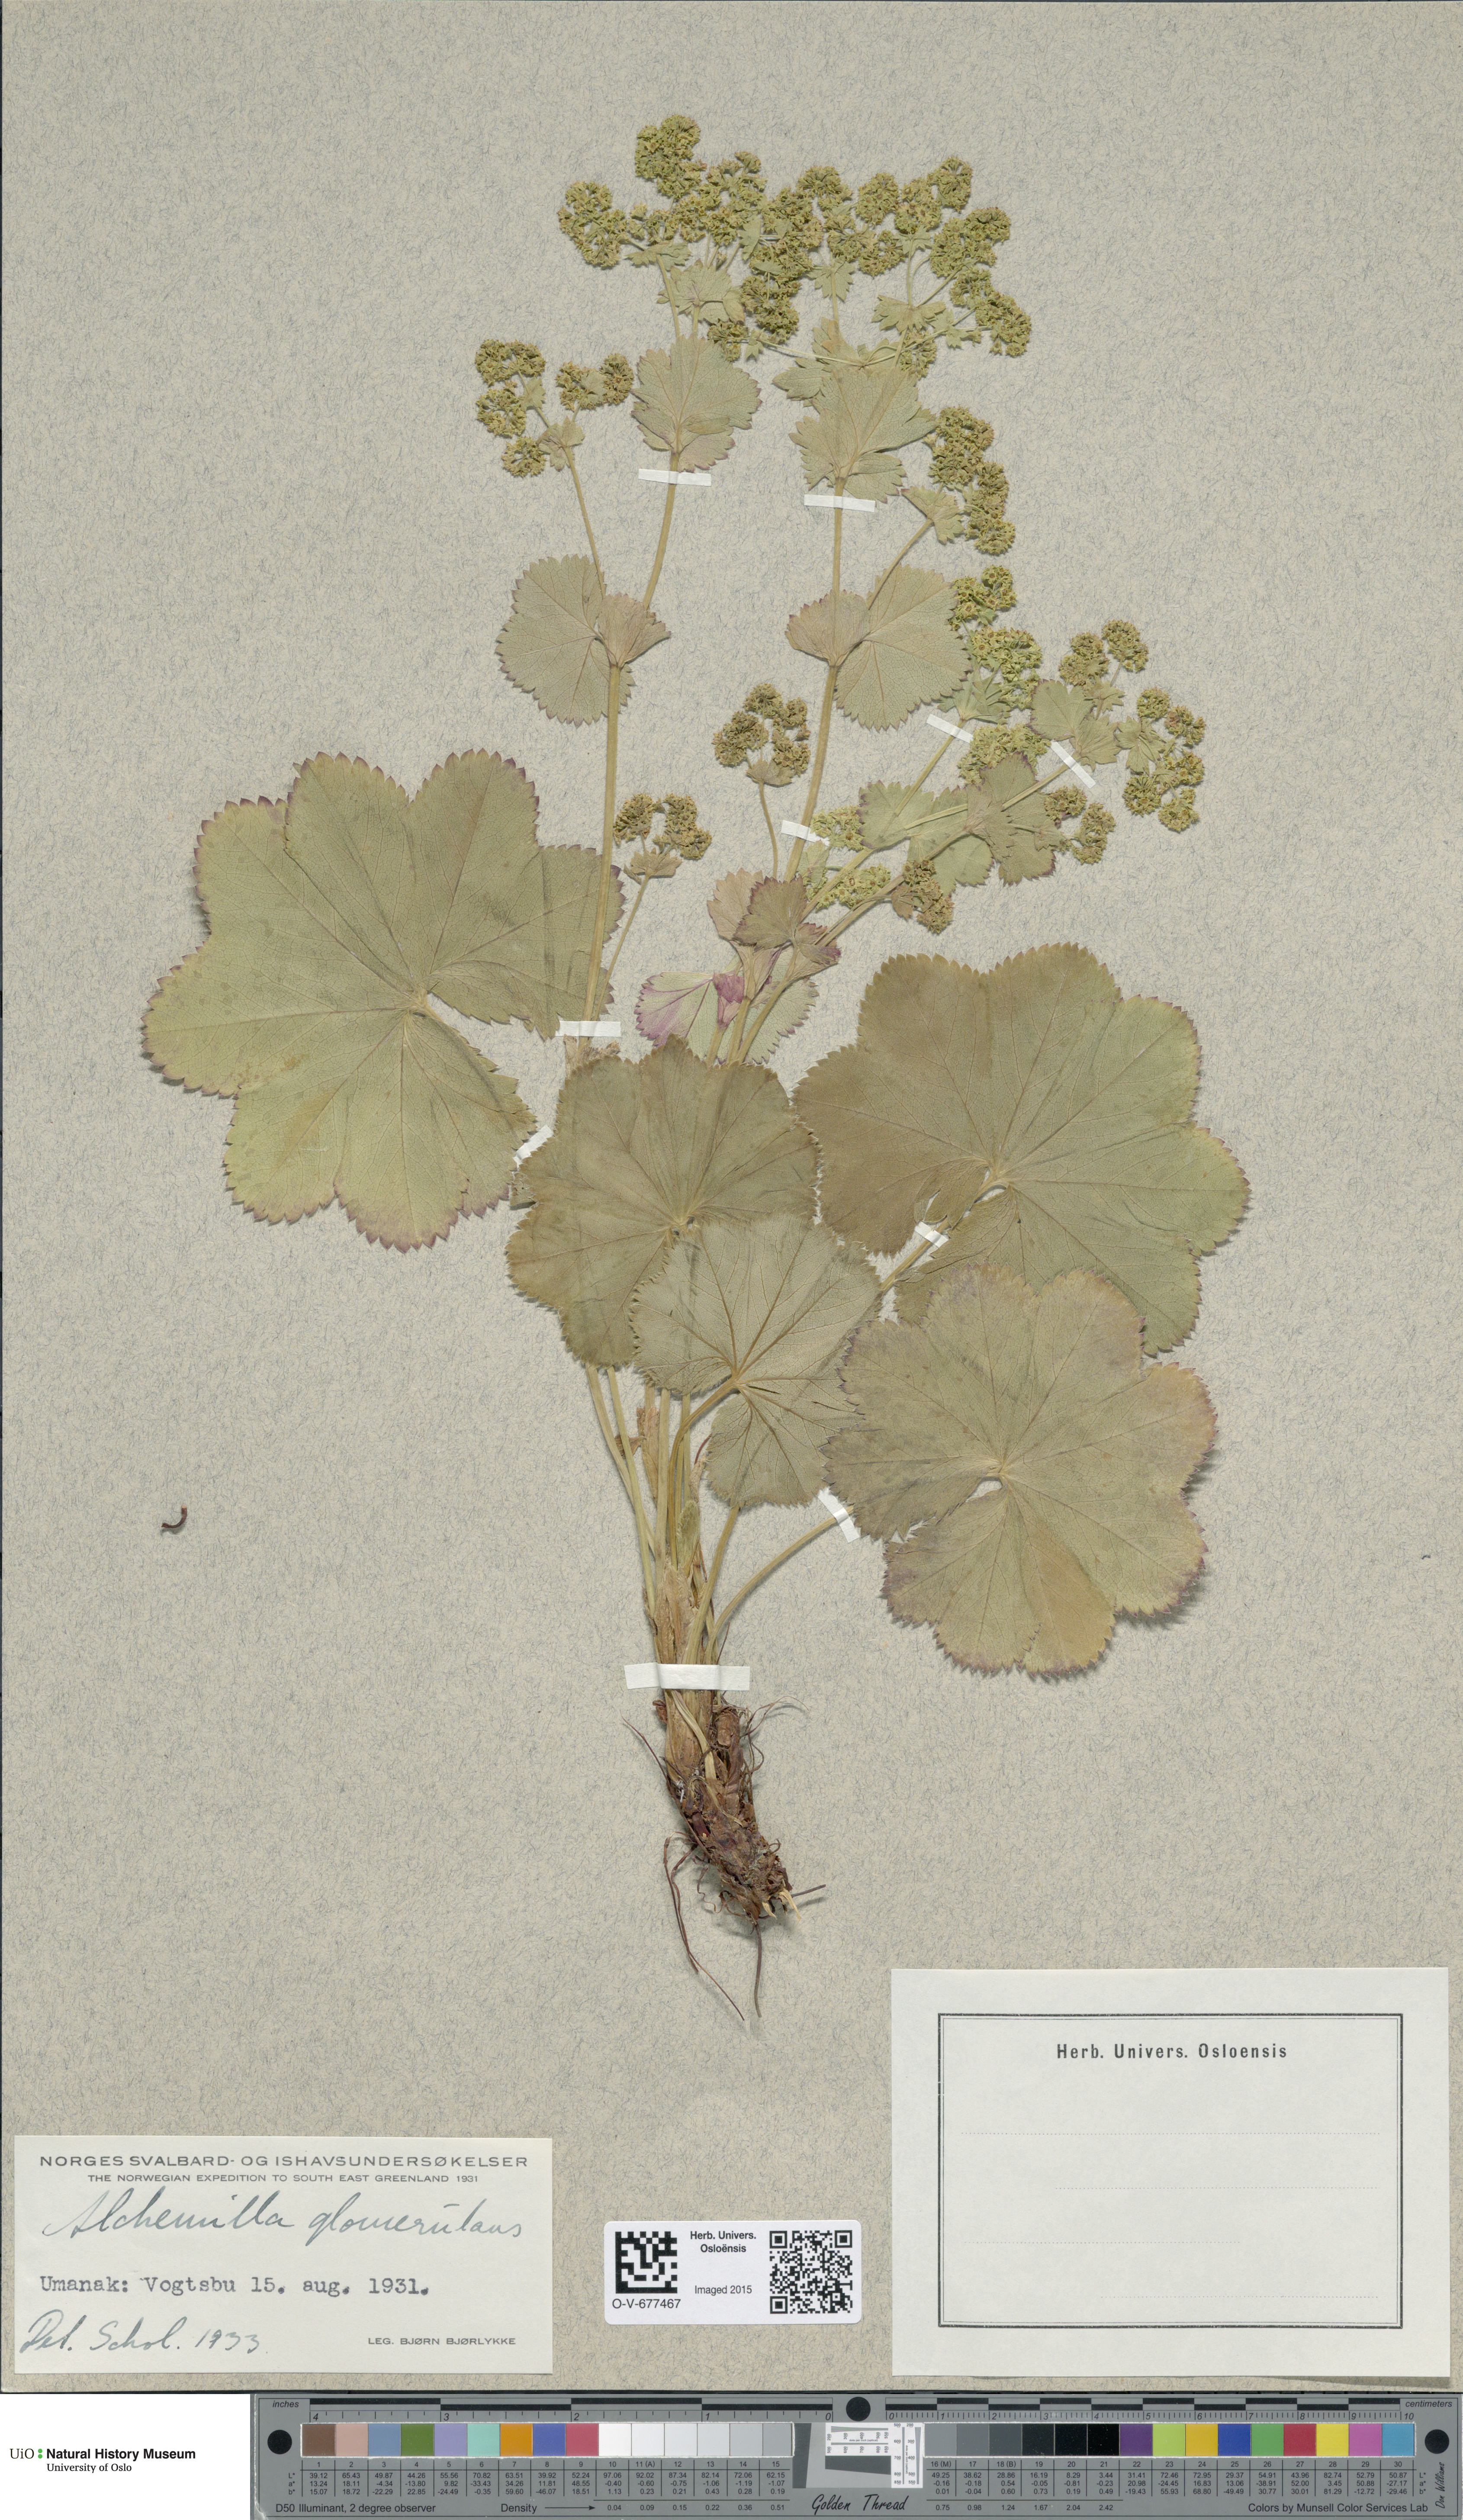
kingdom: Plantae
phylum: Tracheophyta
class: Magnoliopsida
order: Rosales
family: Rosaceae
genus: Alchemilla
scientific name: Alchemilla glomerulans
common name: Clustered lady's mantle
